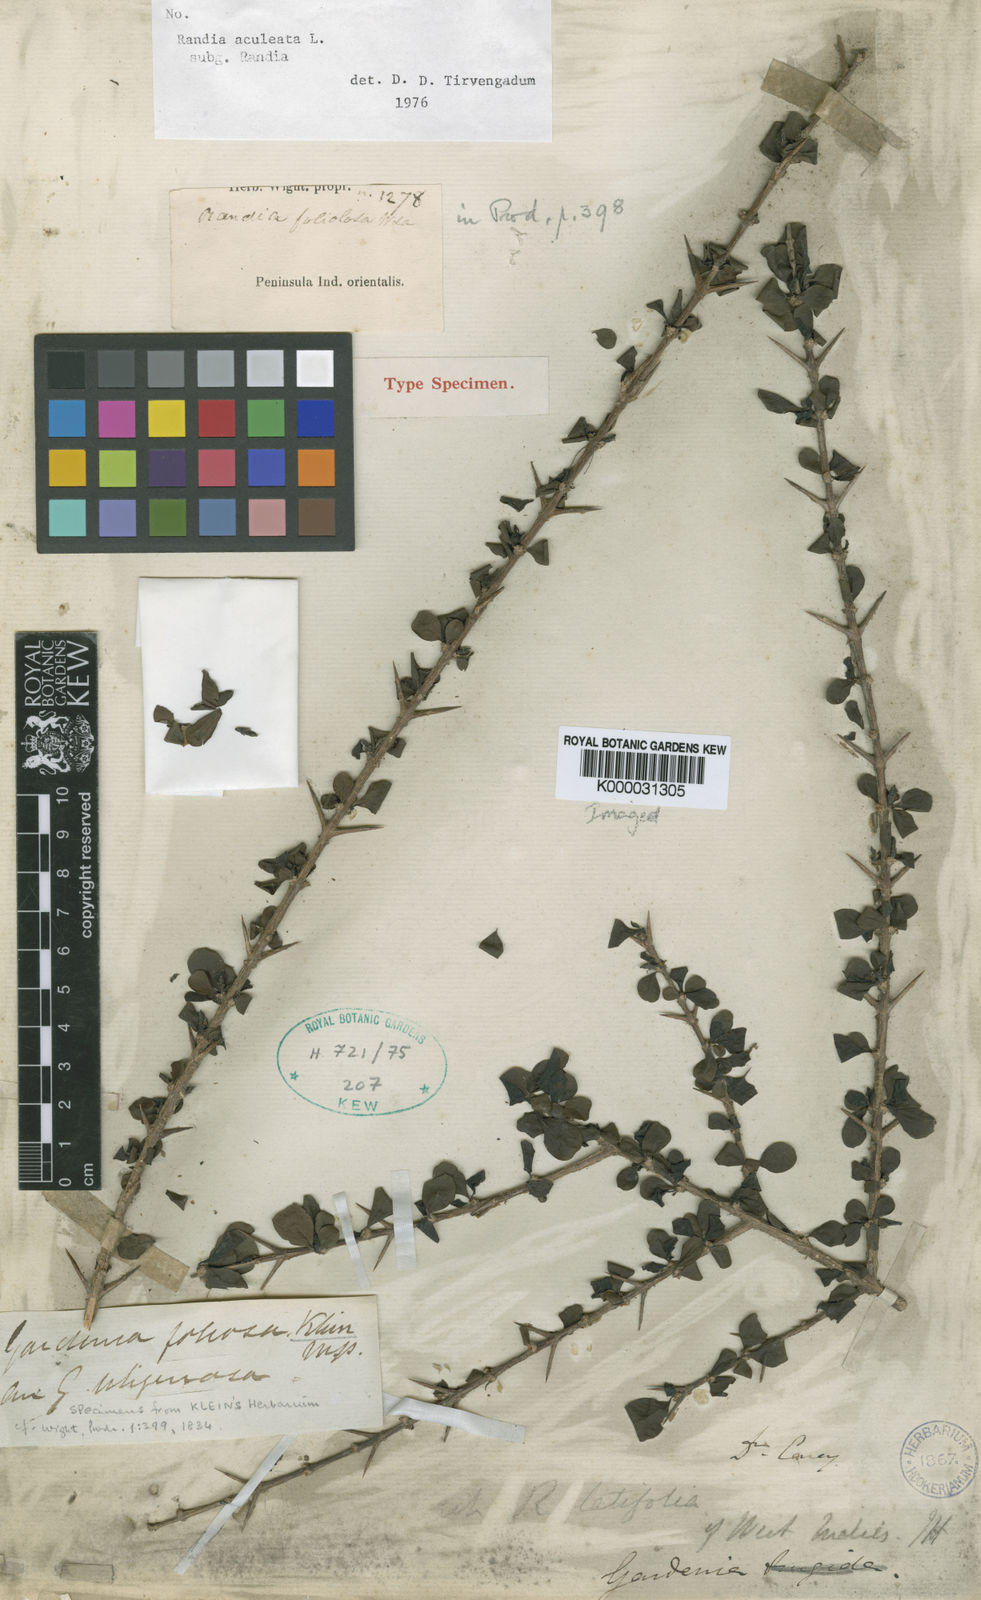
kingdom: Plantae
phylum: Tracheophyta
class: Magnoliopsida
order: Gentianales
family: Rubiaceae
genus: Randia
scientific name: Randia aculeata
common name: Inkberry
